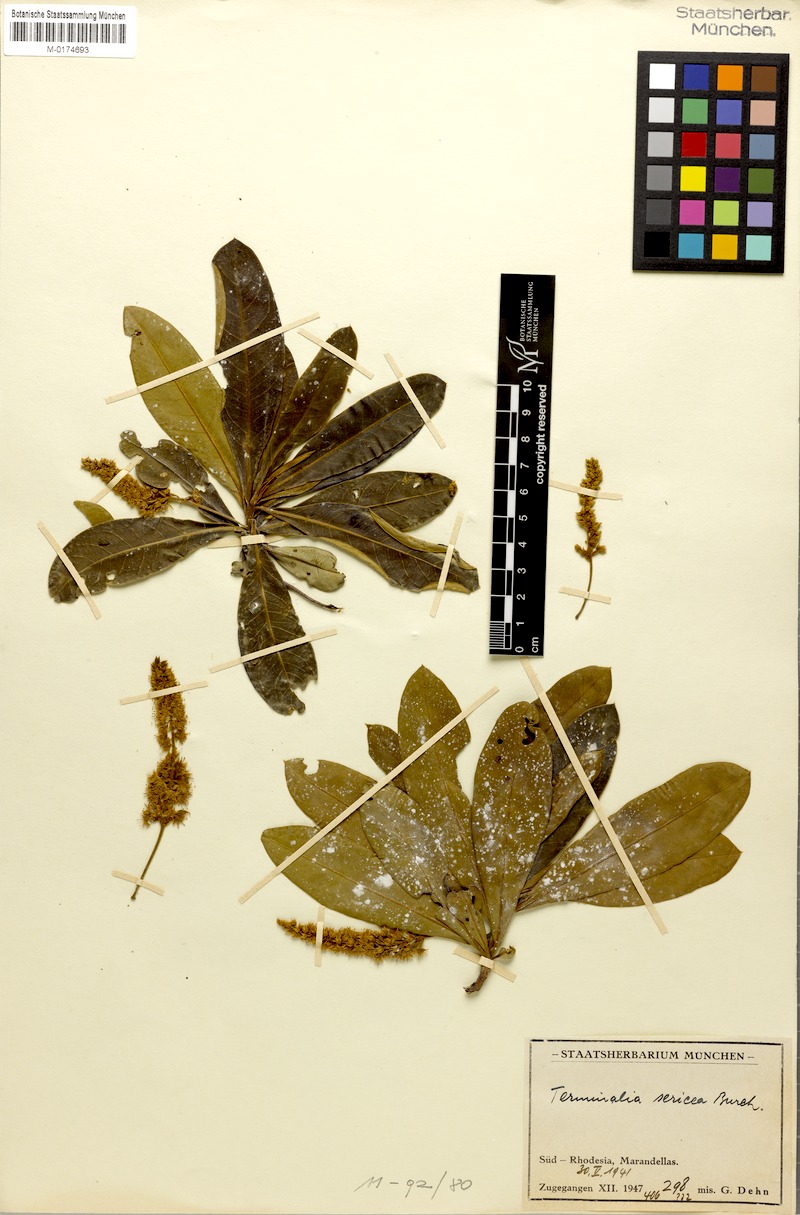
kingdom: Plantae
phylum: Tracheophyta
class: Magnoliopsida
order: Myrtales
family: Combretaceae
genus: Terminalia
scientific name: Terminalia sericea
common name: Clusterleaf
